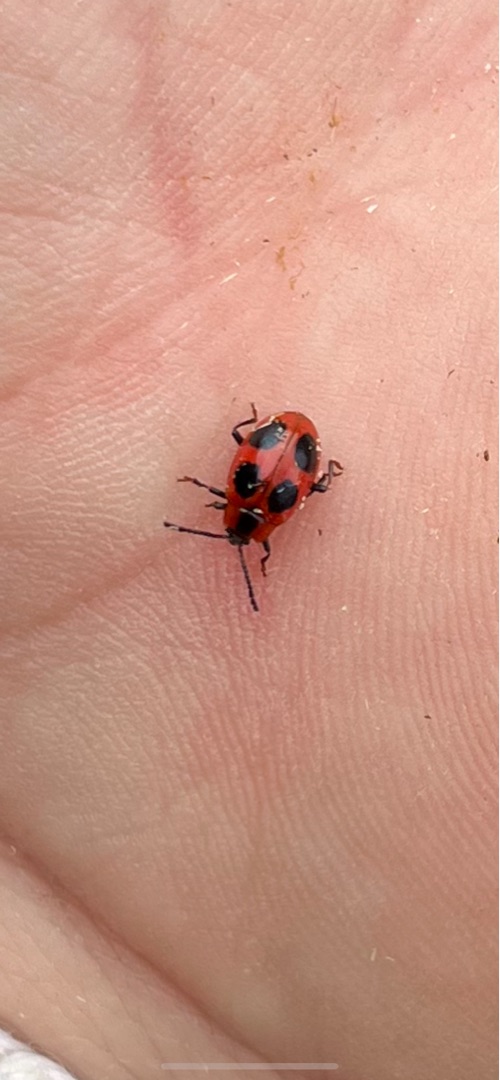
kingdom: Animalia
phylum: Arthropoda
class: Insecta
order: Coleoptera
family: Endomychidae
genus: Endomychus
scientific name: Endomychus coccineus
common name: Skarlagensvampehøne
